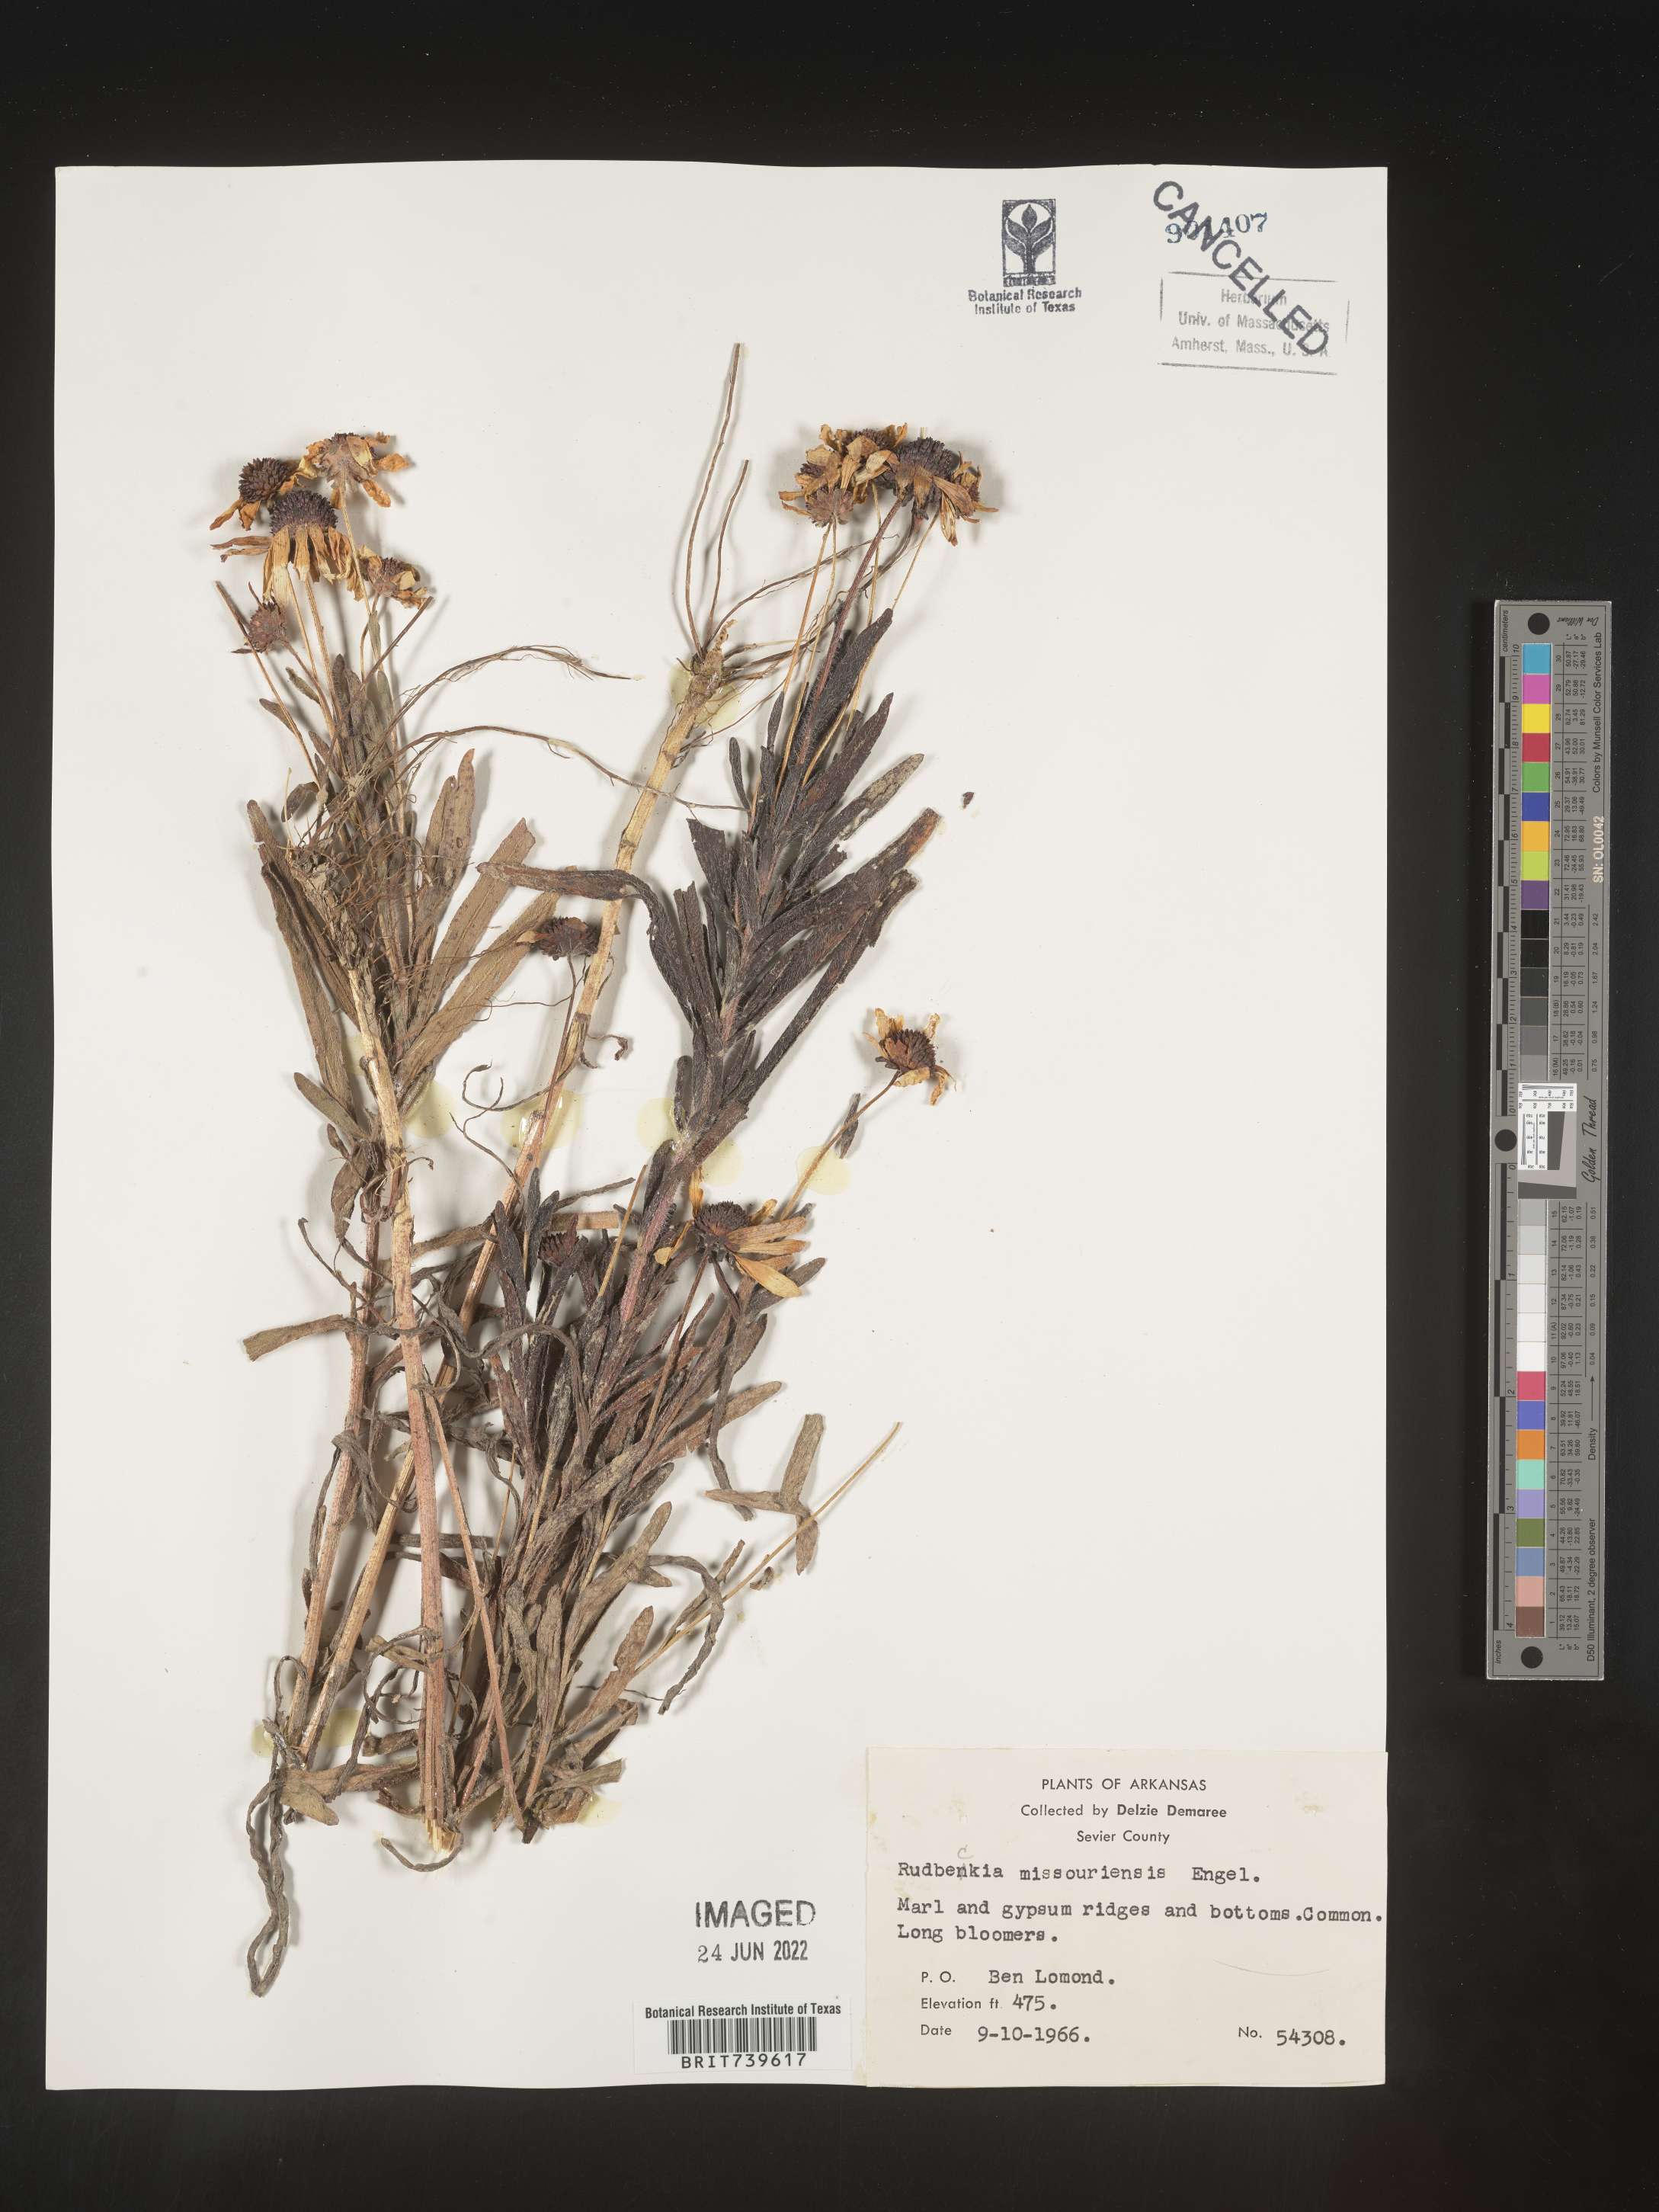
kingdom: Plantae
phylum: Tracheophyta
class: Magnoliopsida
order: Asterales
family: Asteraceae
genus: Rudbeckia
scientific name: Rudbeckia missouriensis
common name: Missouri coneflower
